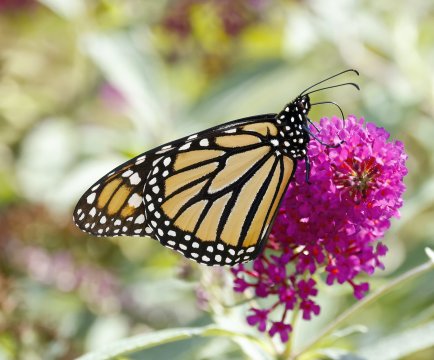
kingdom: Animalia
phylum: Arthropoda
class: Insecta
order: Lepidoptera
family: Nymphalidae
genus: Danaus
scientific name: Danaus plexippus
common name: Monarch
